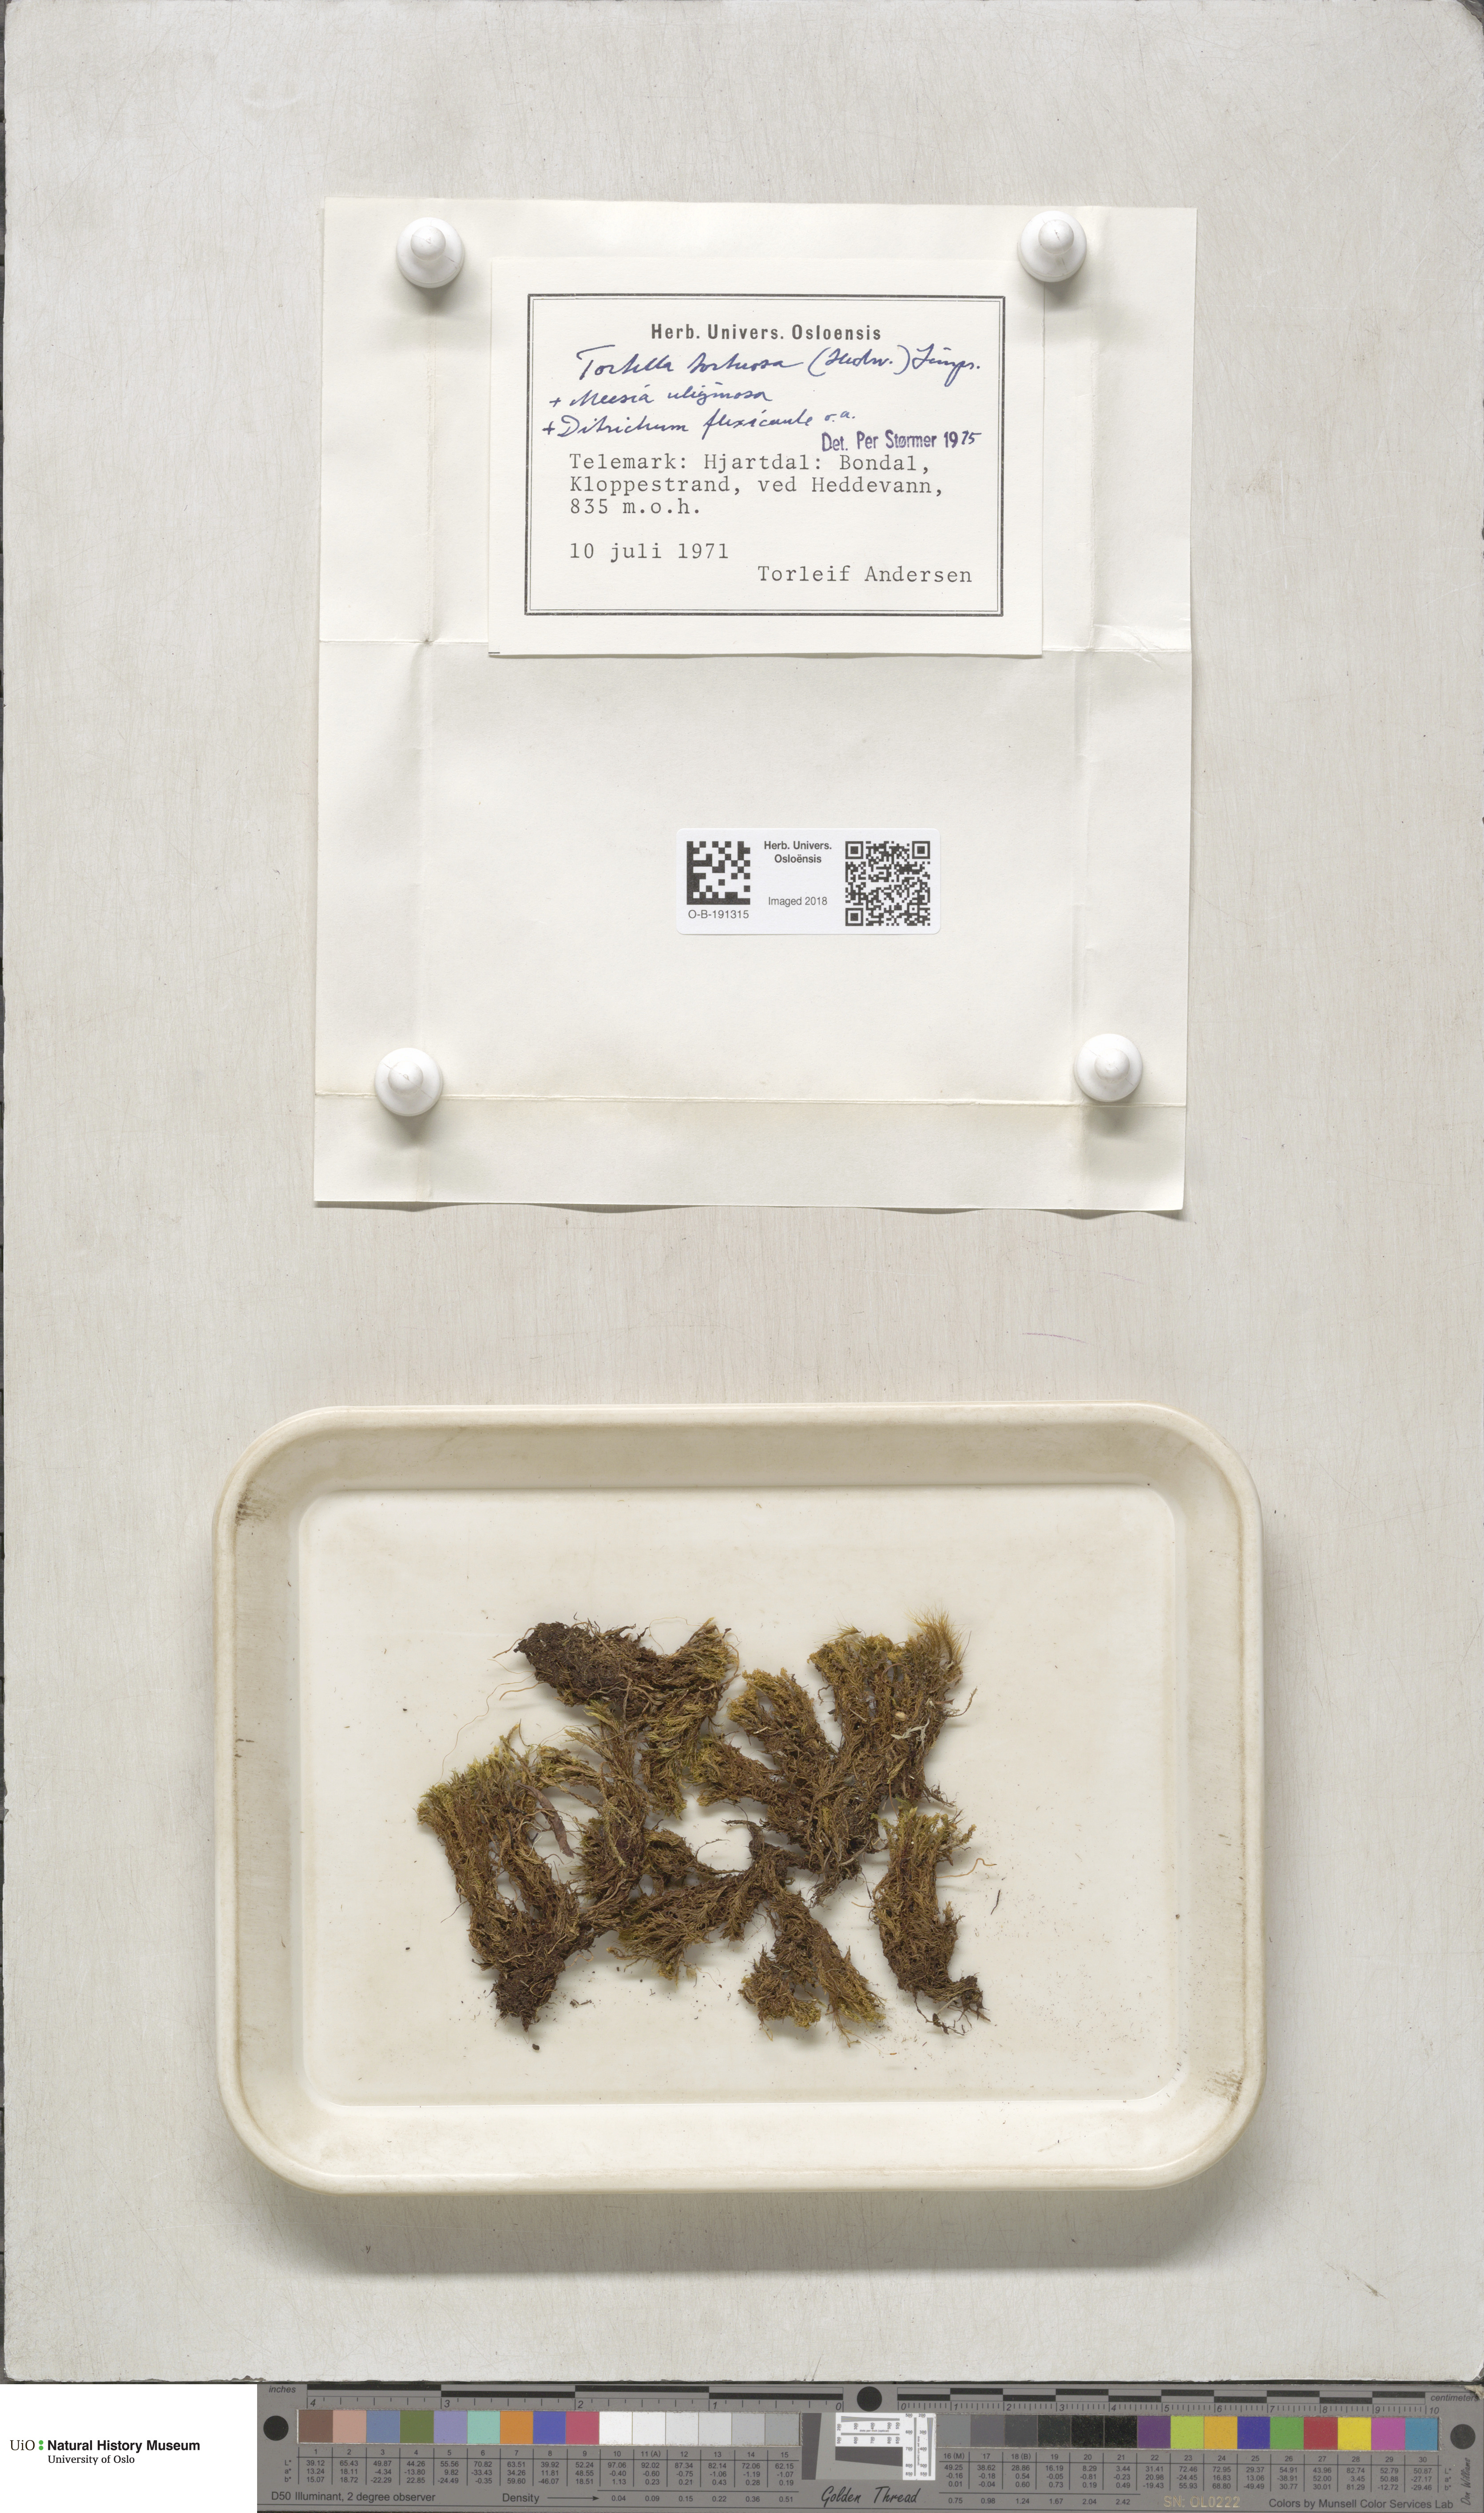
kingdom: Plantae
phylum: Bryophyta
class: Bryopsida
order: Pottiales
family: Pottiaceae
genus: Tortella
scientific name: Tortella tortuosa
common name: Frizzled crisp moss
